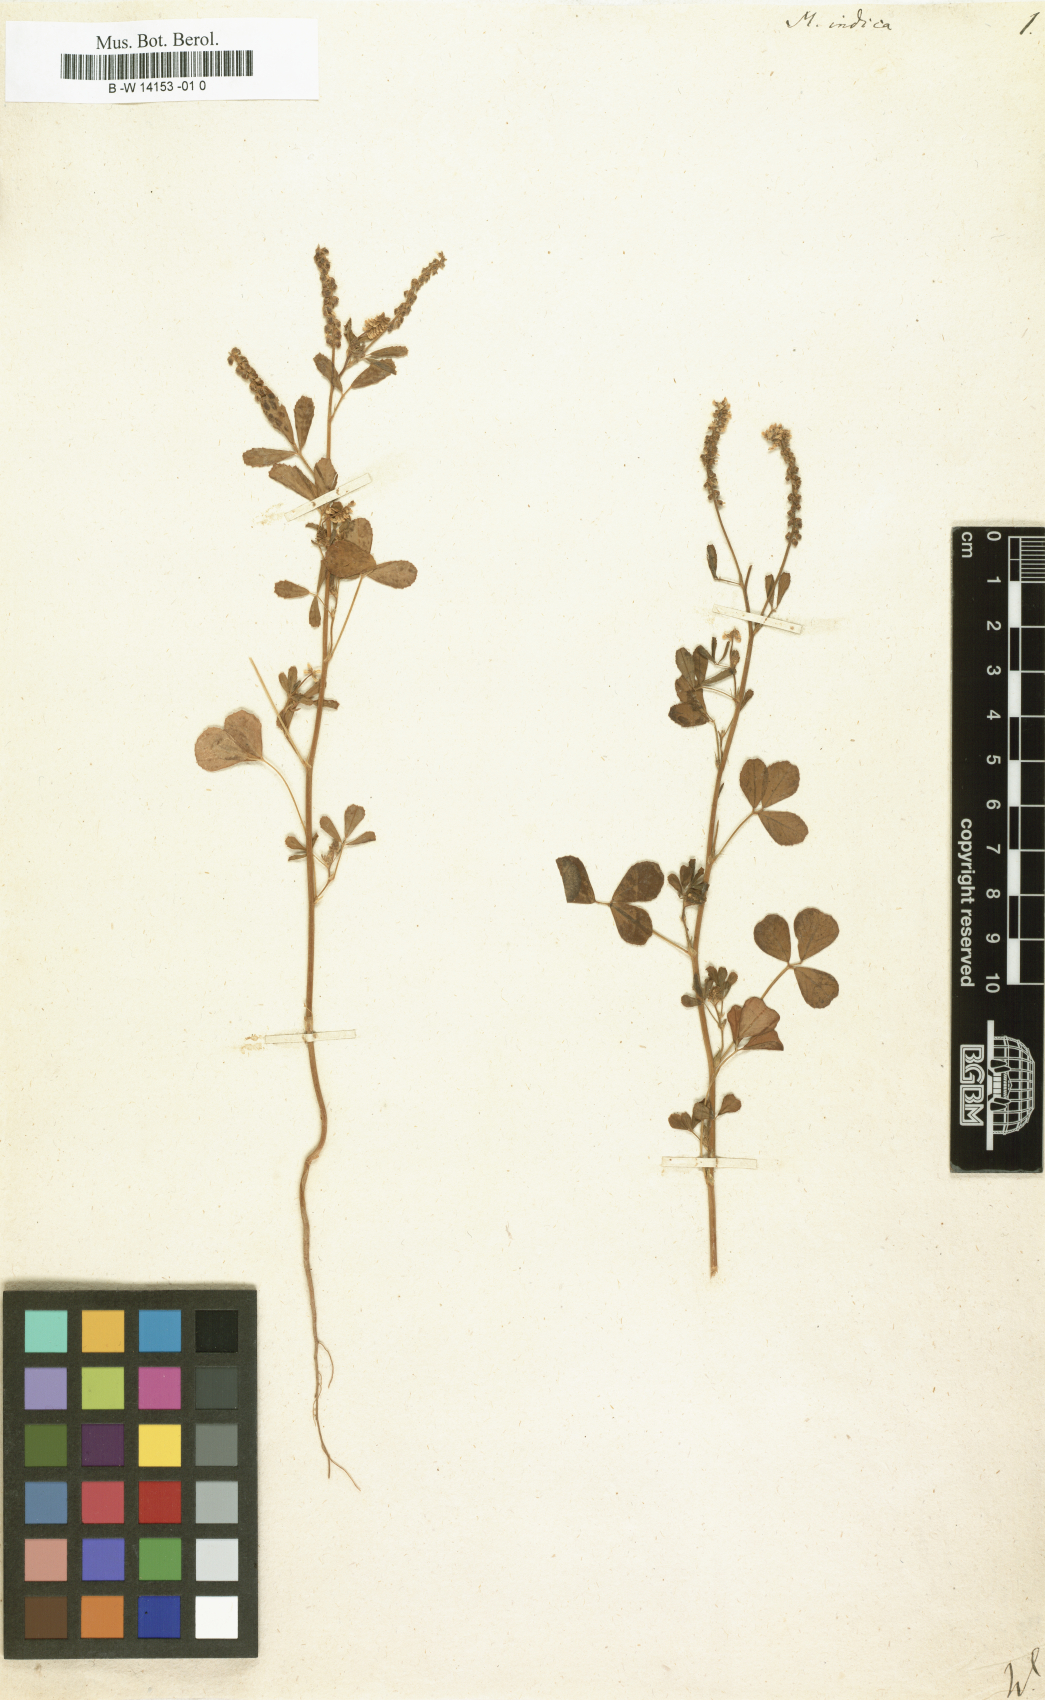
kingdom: Plantae
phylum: Tracheophyta
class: Magnoliopsida
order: Fabales
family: Fabaceae
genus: Melilotus
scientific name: Melilotus indicus
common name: Small melilot
